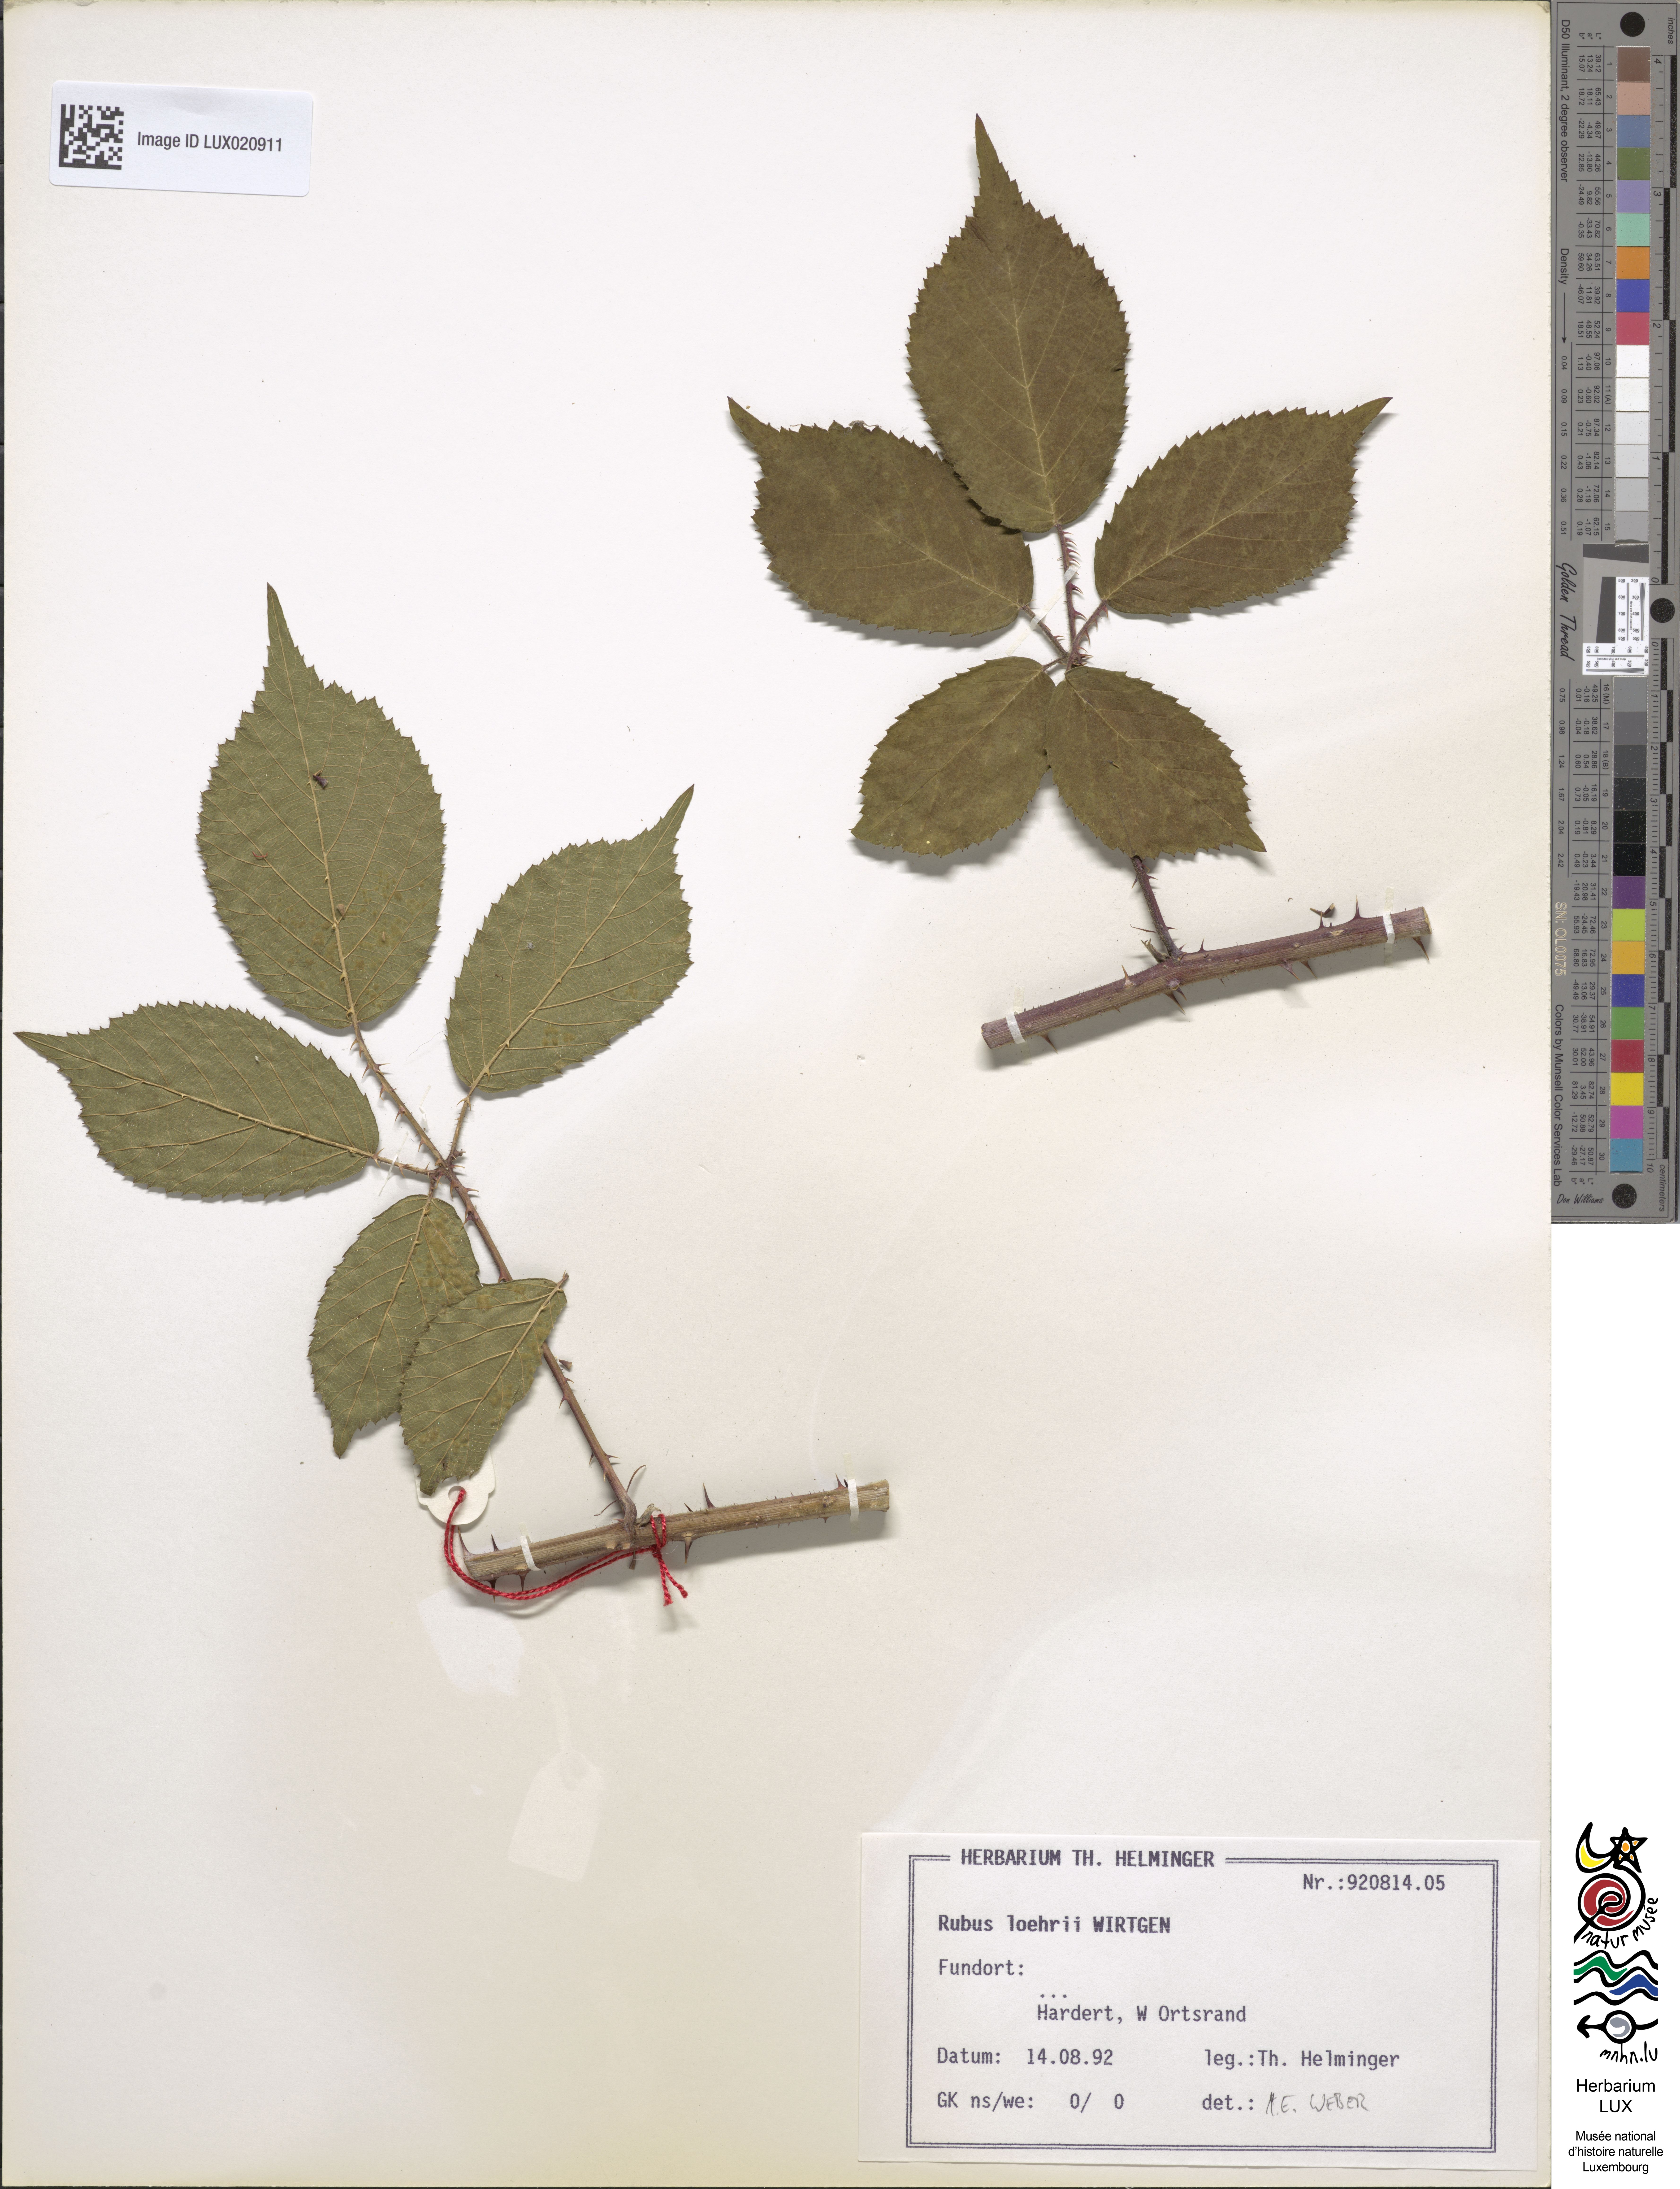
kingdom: Plantae
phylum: Tracheophyta
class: Magnoliopsida
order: Rosales
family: Rosaceae
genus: Rubus
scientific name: Rubus loehrii
